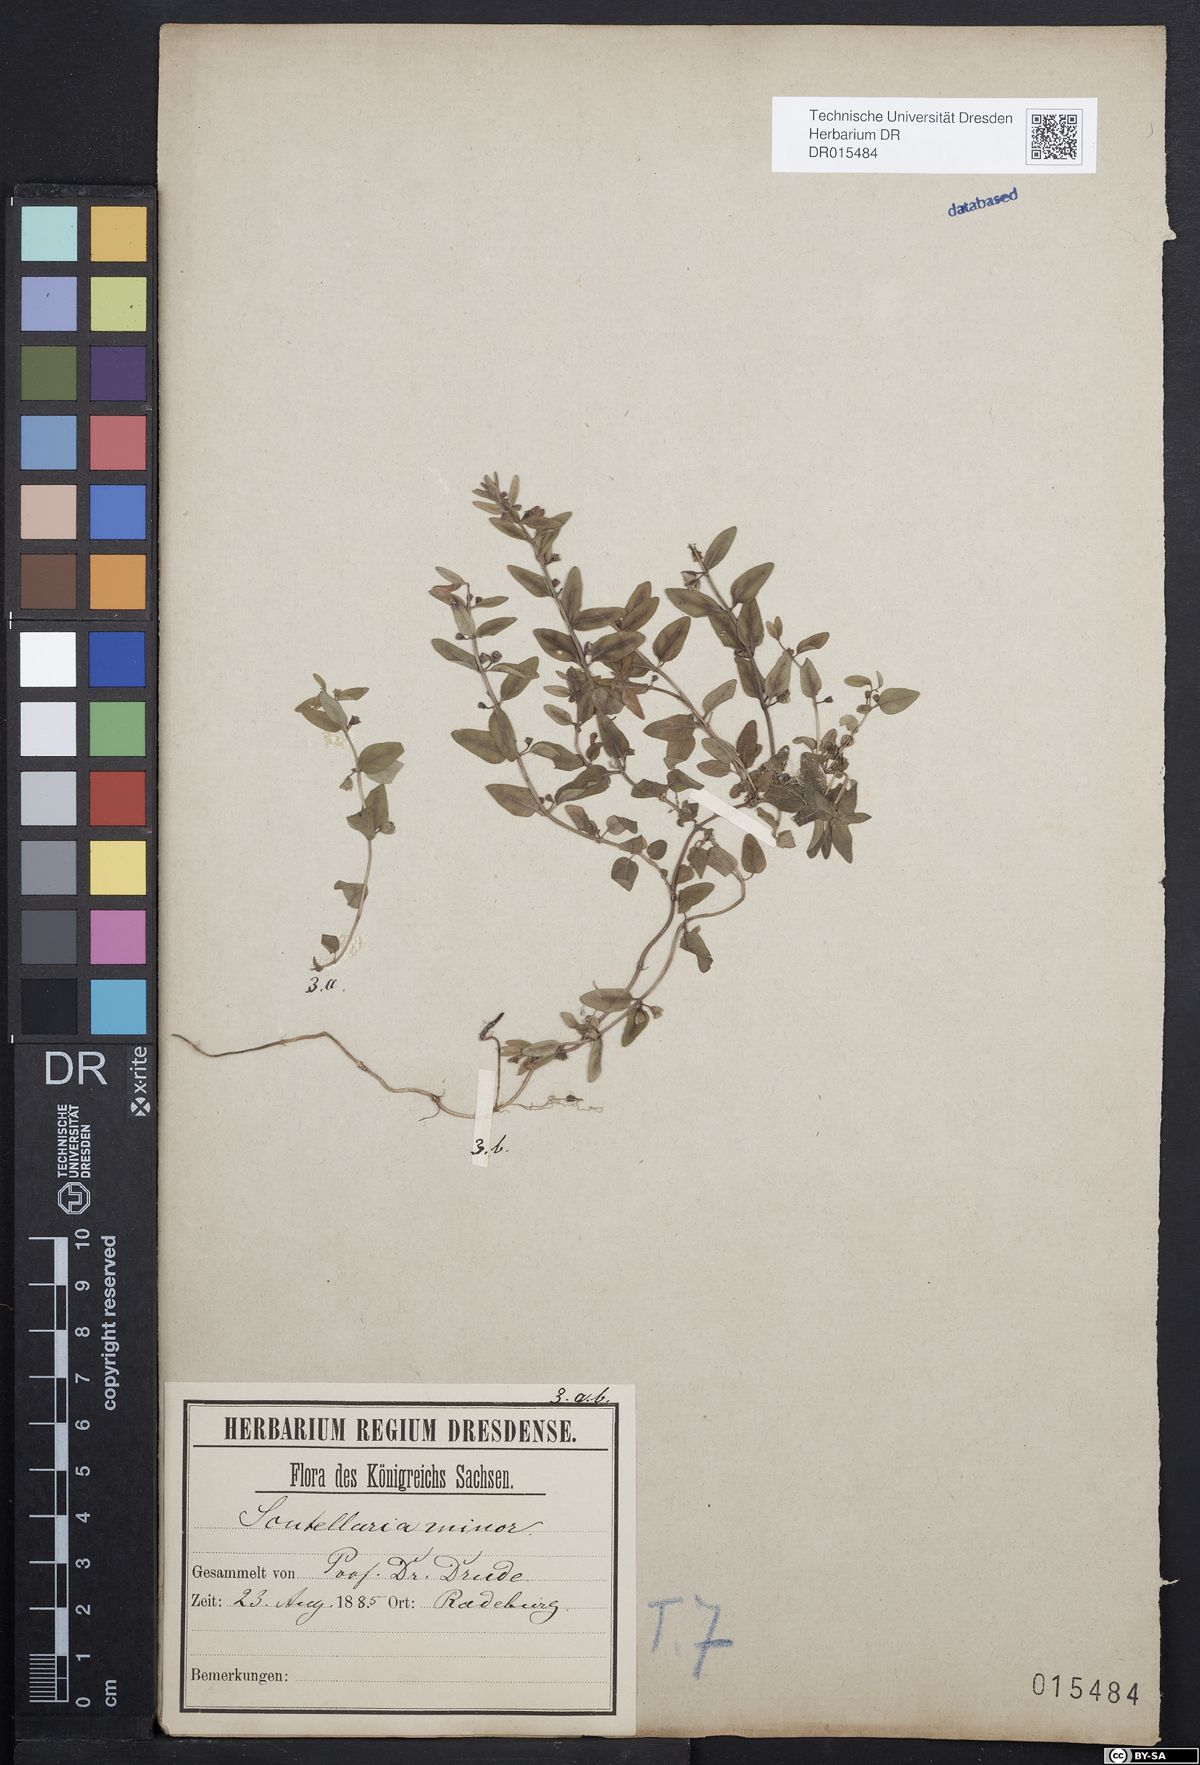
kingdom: Plantae
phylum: Tracheophyta
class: Magnoliopsida
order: Lamiales
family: Lamiaceae
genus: Scutellaria
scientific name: Scutellaria minor
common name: Lesser skullcap
